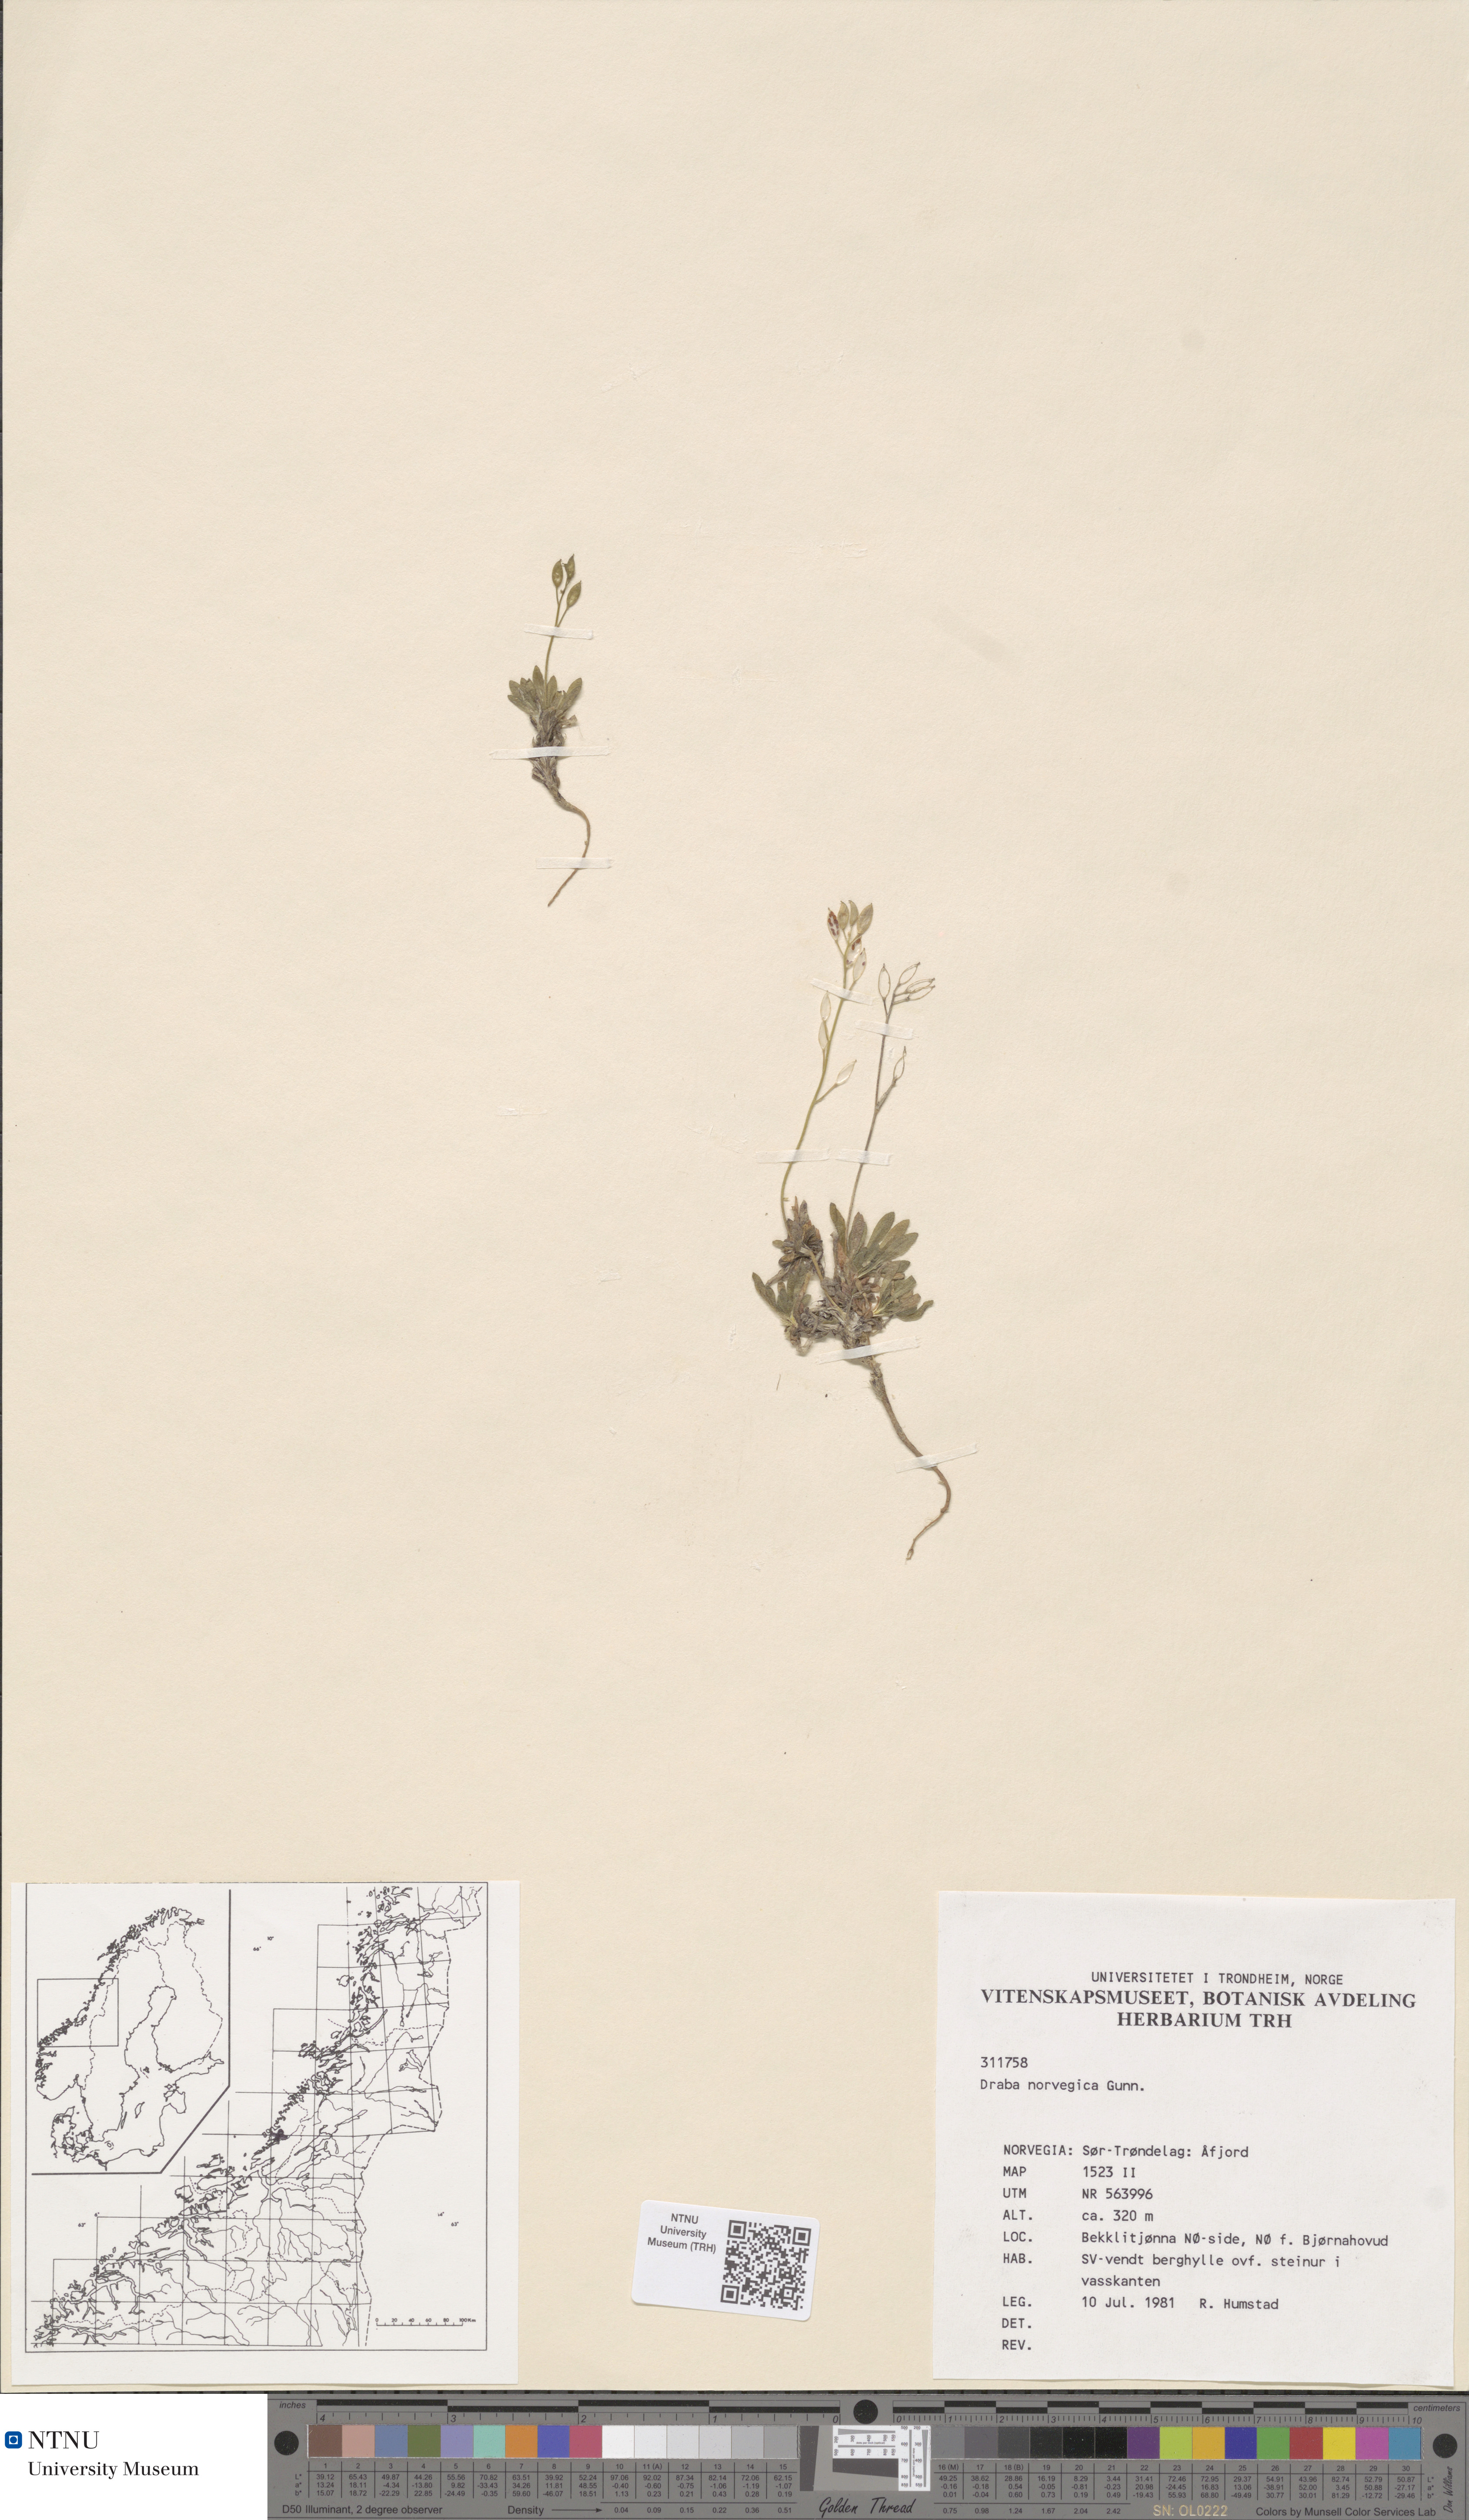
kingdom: Plantae
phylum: Tracheophyta
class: Magnoliopsida
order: Brassicales
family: Brassicaceae
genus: Draba
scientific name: Draba norvegica
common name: Rock whitlowgrass
